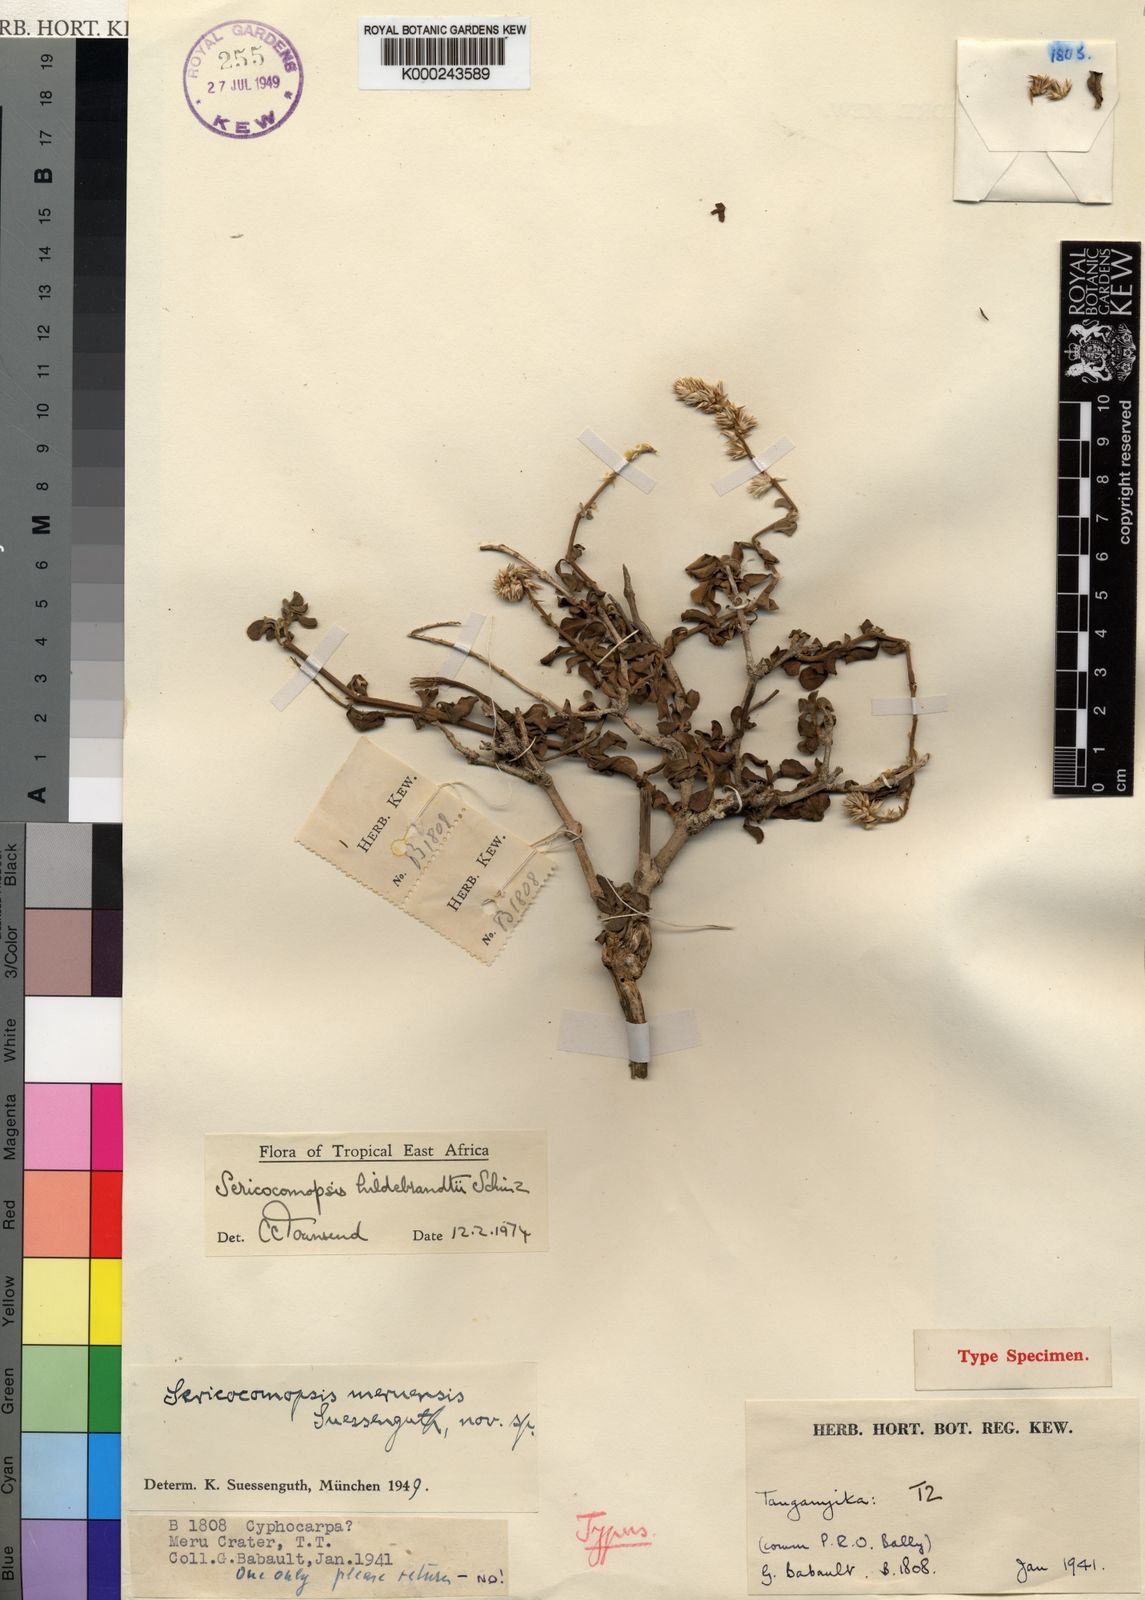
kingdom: Plantae
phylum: Tracheophyta
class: Magnoliopsida
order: Caryophyllales
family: Amaranthaceae
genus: Sericocomopsis
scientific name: Sericocomopsis hildebrandtii
